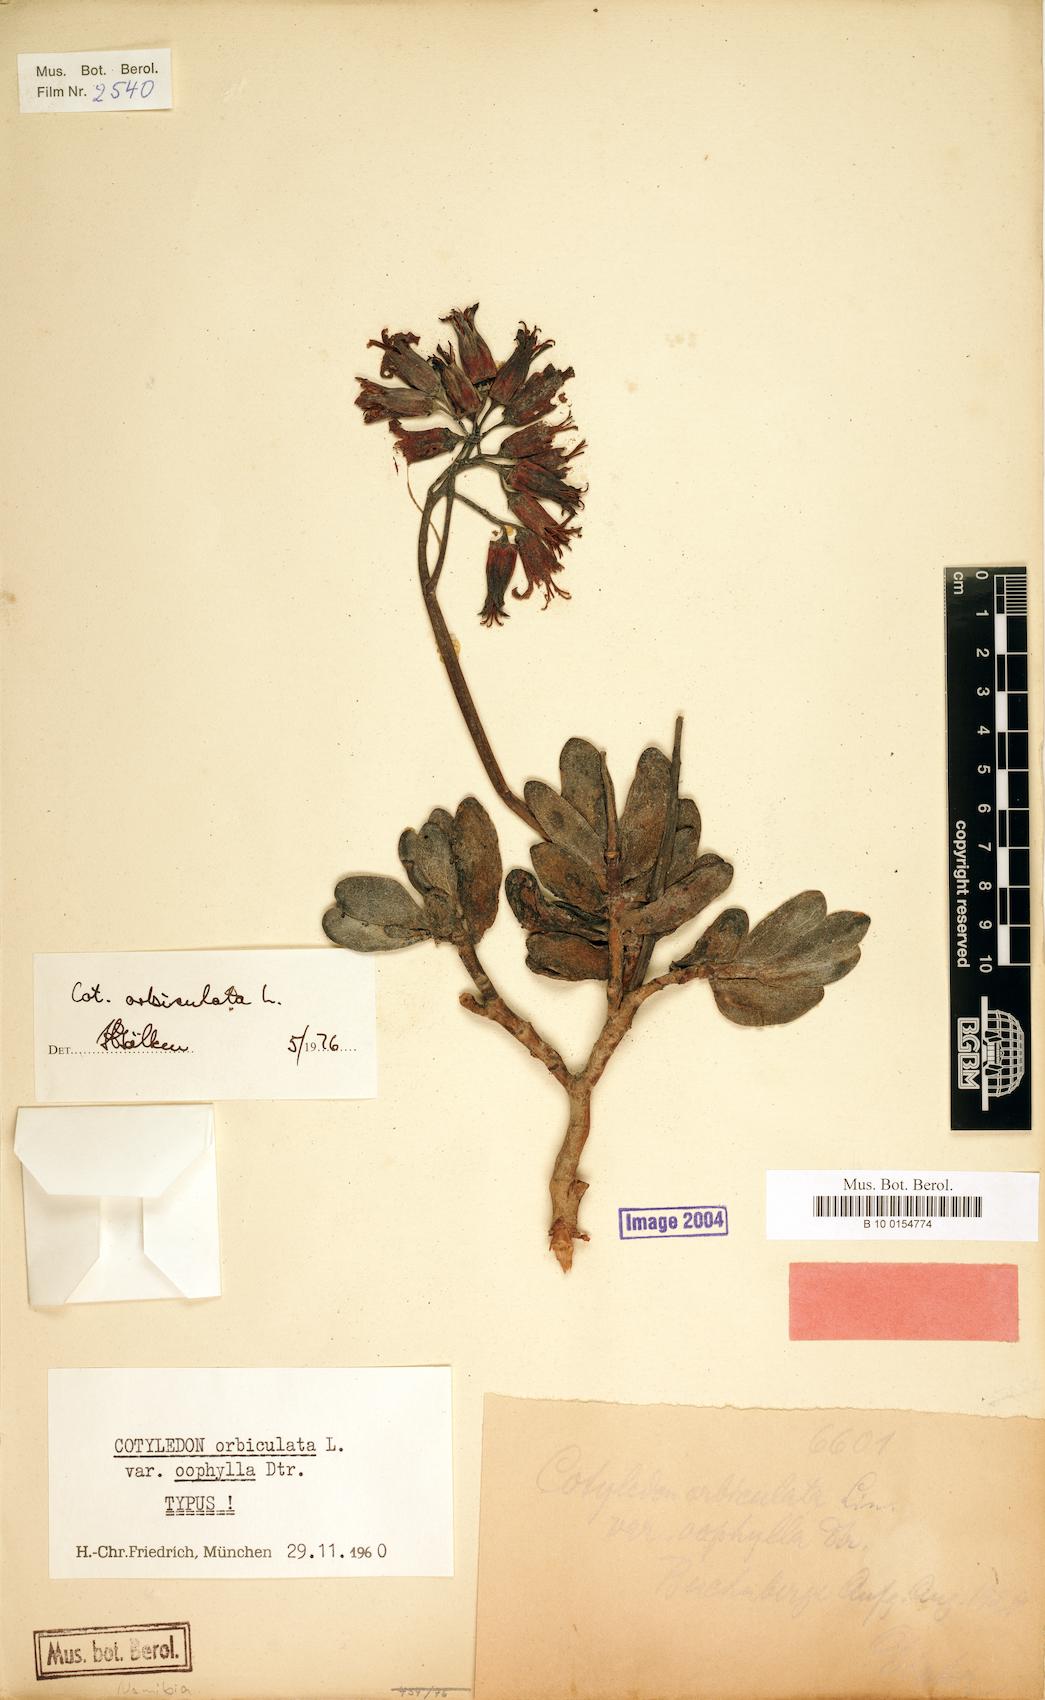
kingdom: Plantae
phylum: Tracheophyta
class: Magnoliopsida
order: Saxifragales
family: Crassulaceae
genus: Cotyledon
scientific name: Cotyledon orbiculata
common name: Pig's ear
